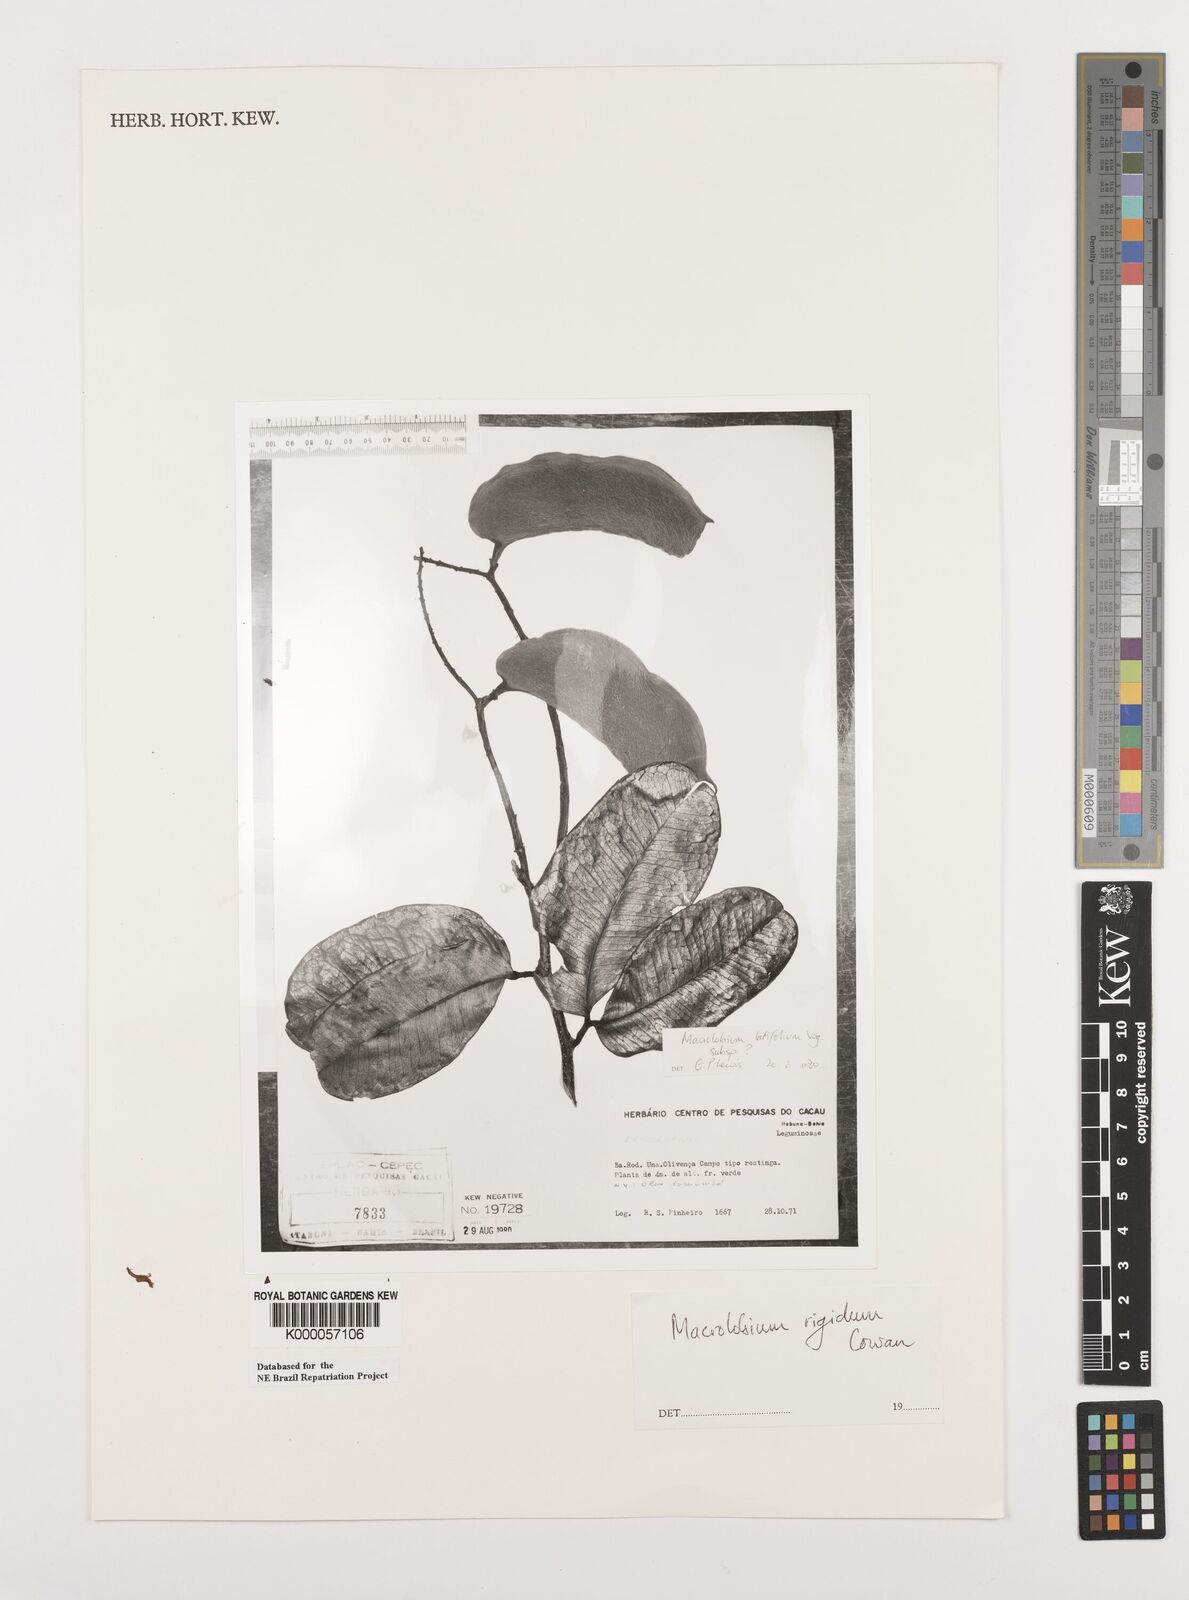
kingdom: Plantae
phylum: Tracheophyta
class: Magnoliopsida
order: Fabales
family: Fabaceae
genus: Macrolobium
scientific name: Macrolobium rigidum
